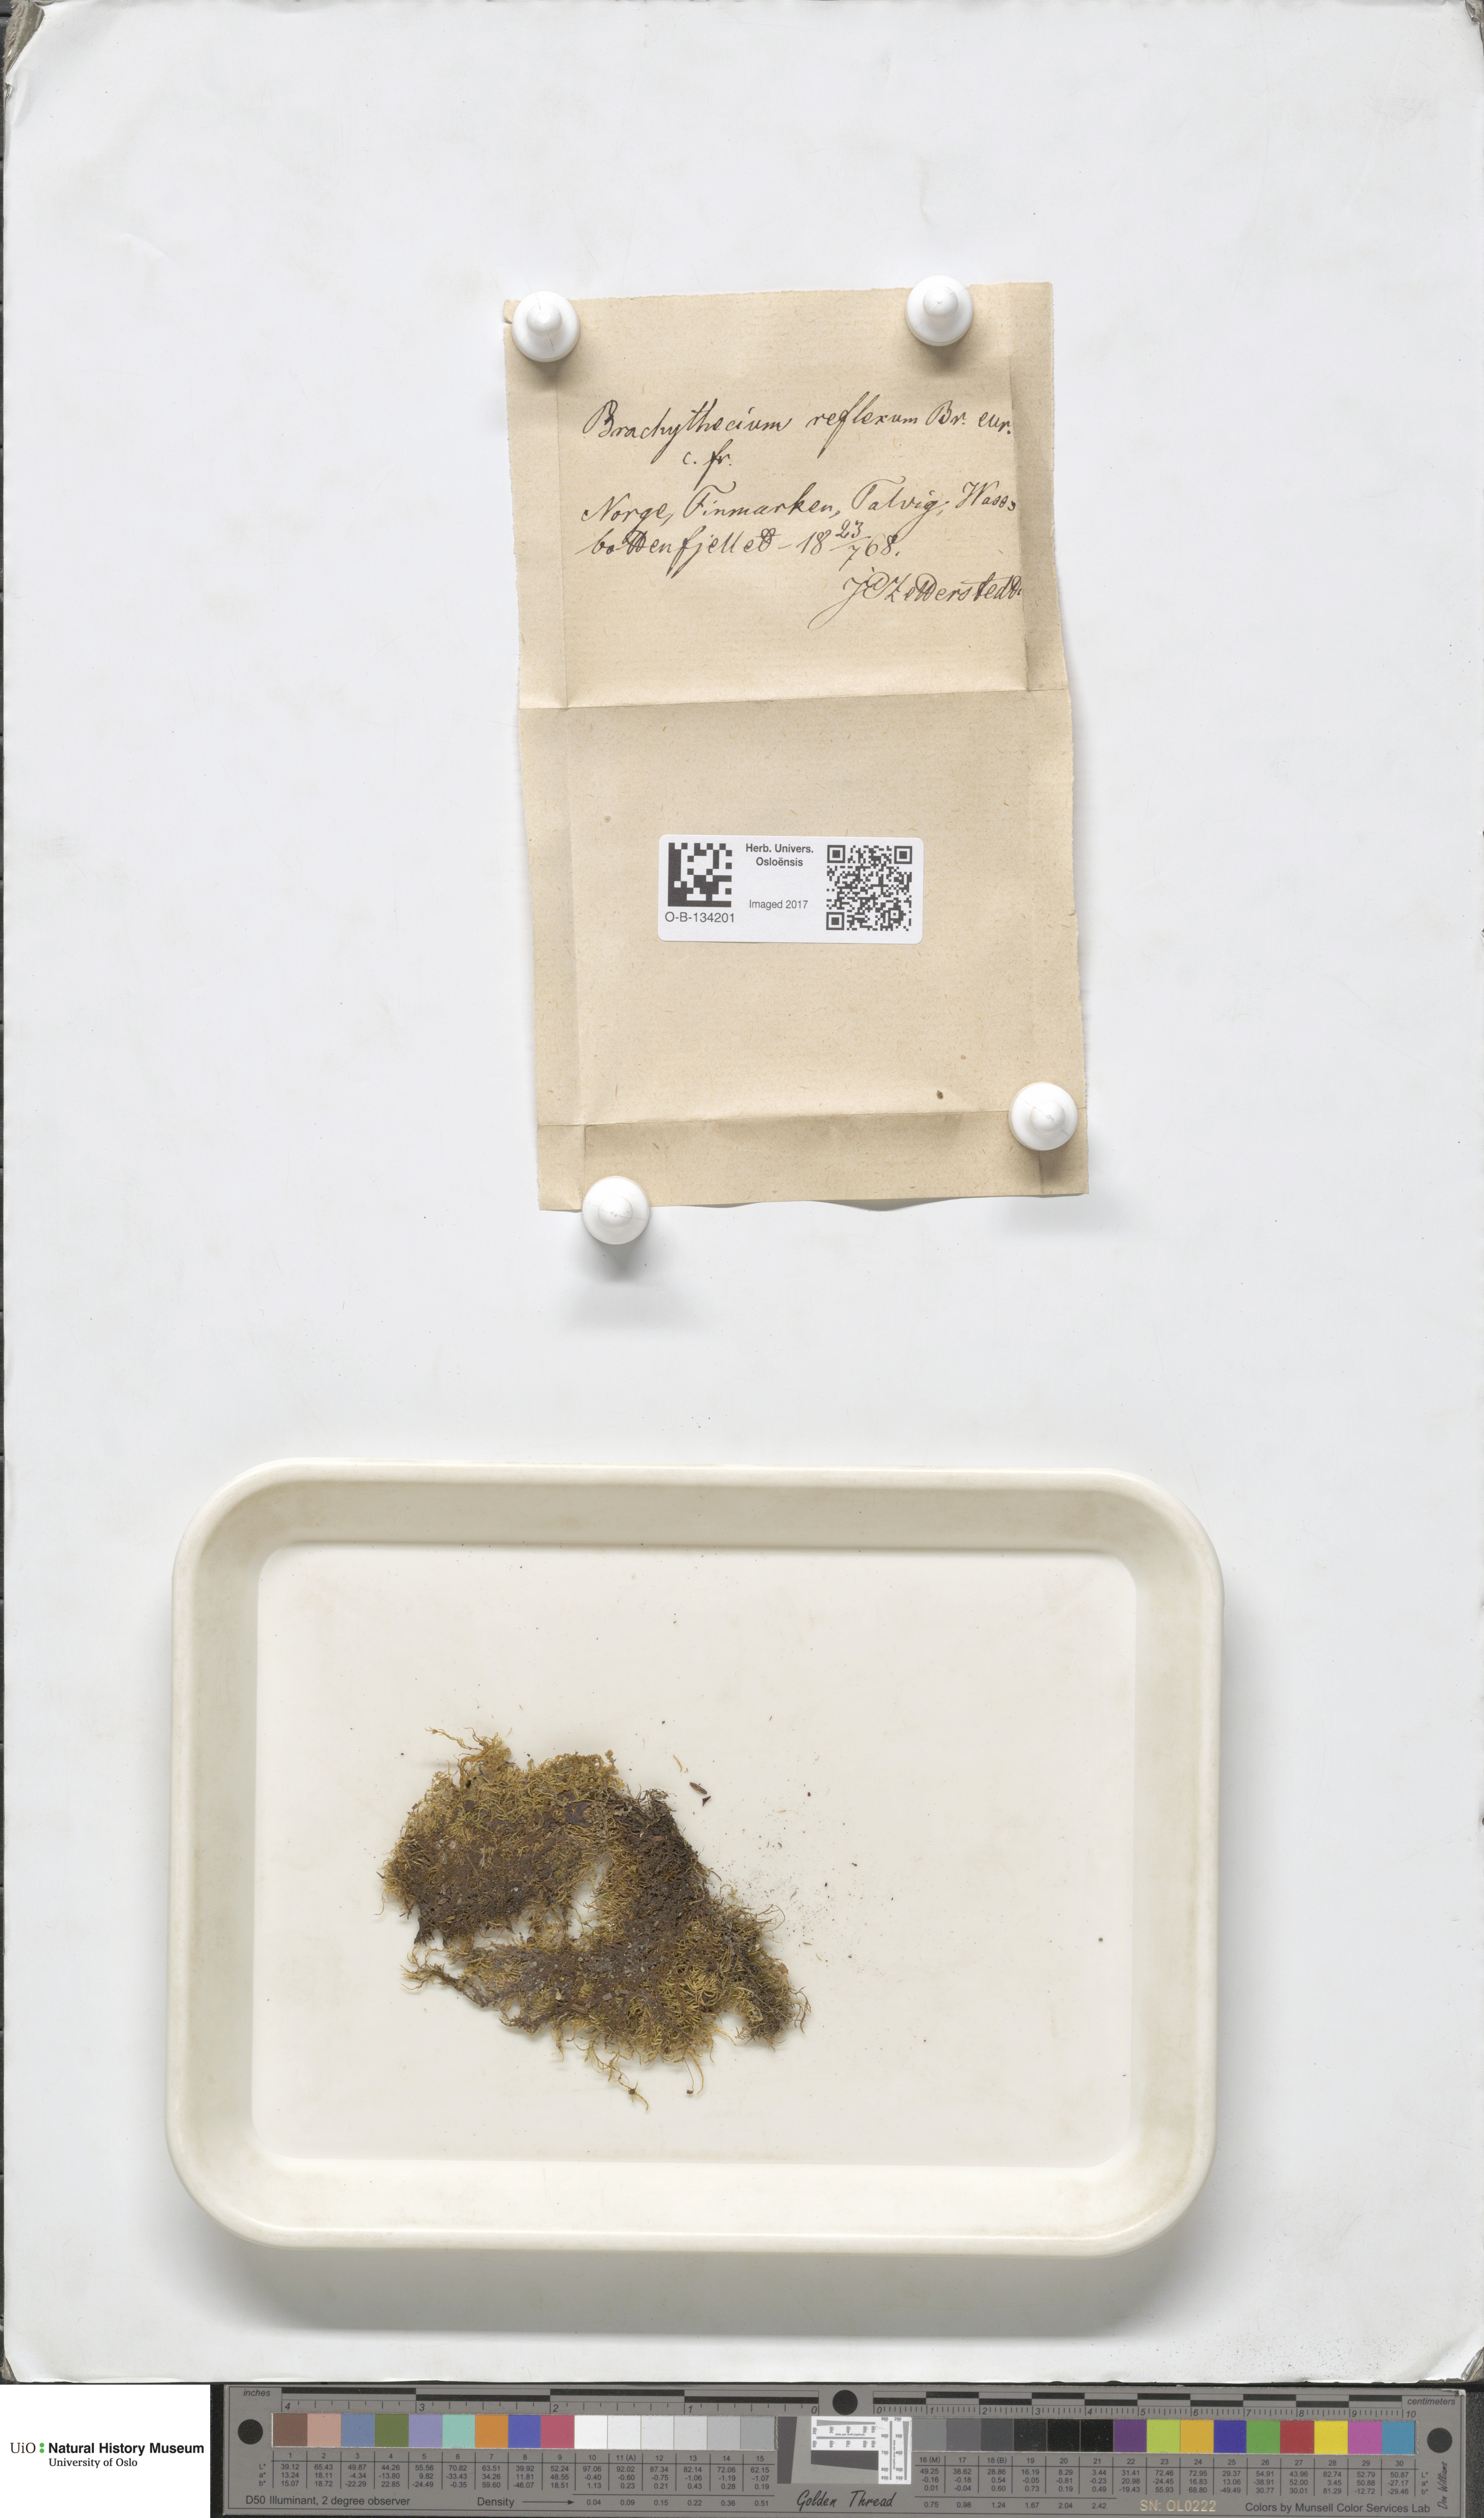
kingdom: Plantae
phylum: Bryophyta
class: Bryopsida
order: Hypnales
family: Brachytheciaceae
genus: Sciuro-hypnum
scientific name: Sciuro-hypnum reflexum
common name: Reflexed feather-moss
